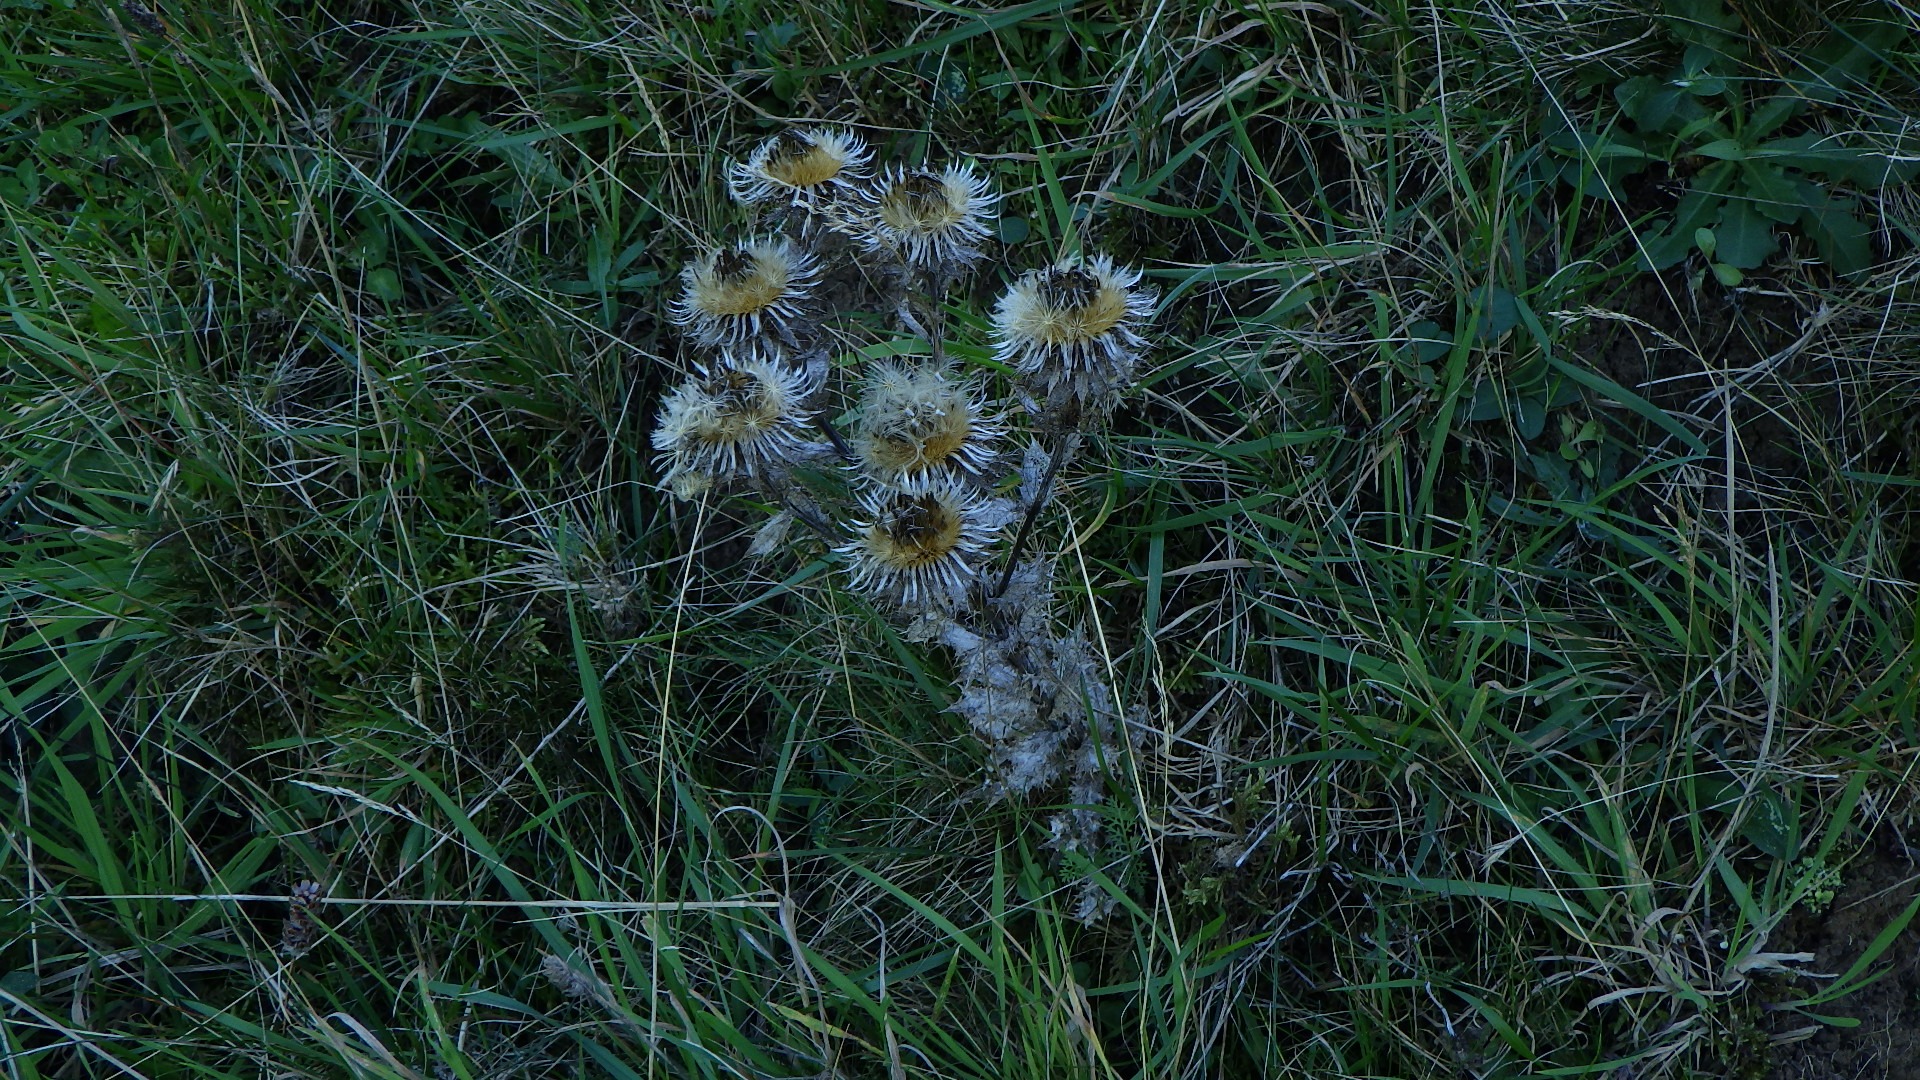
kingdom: Plantae
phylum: Tracheophyta
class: Magnoliopsida
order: Asterales
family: Asteraceae
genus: Carlina
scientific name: Carlina vulgaris
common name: Bakketidsel
